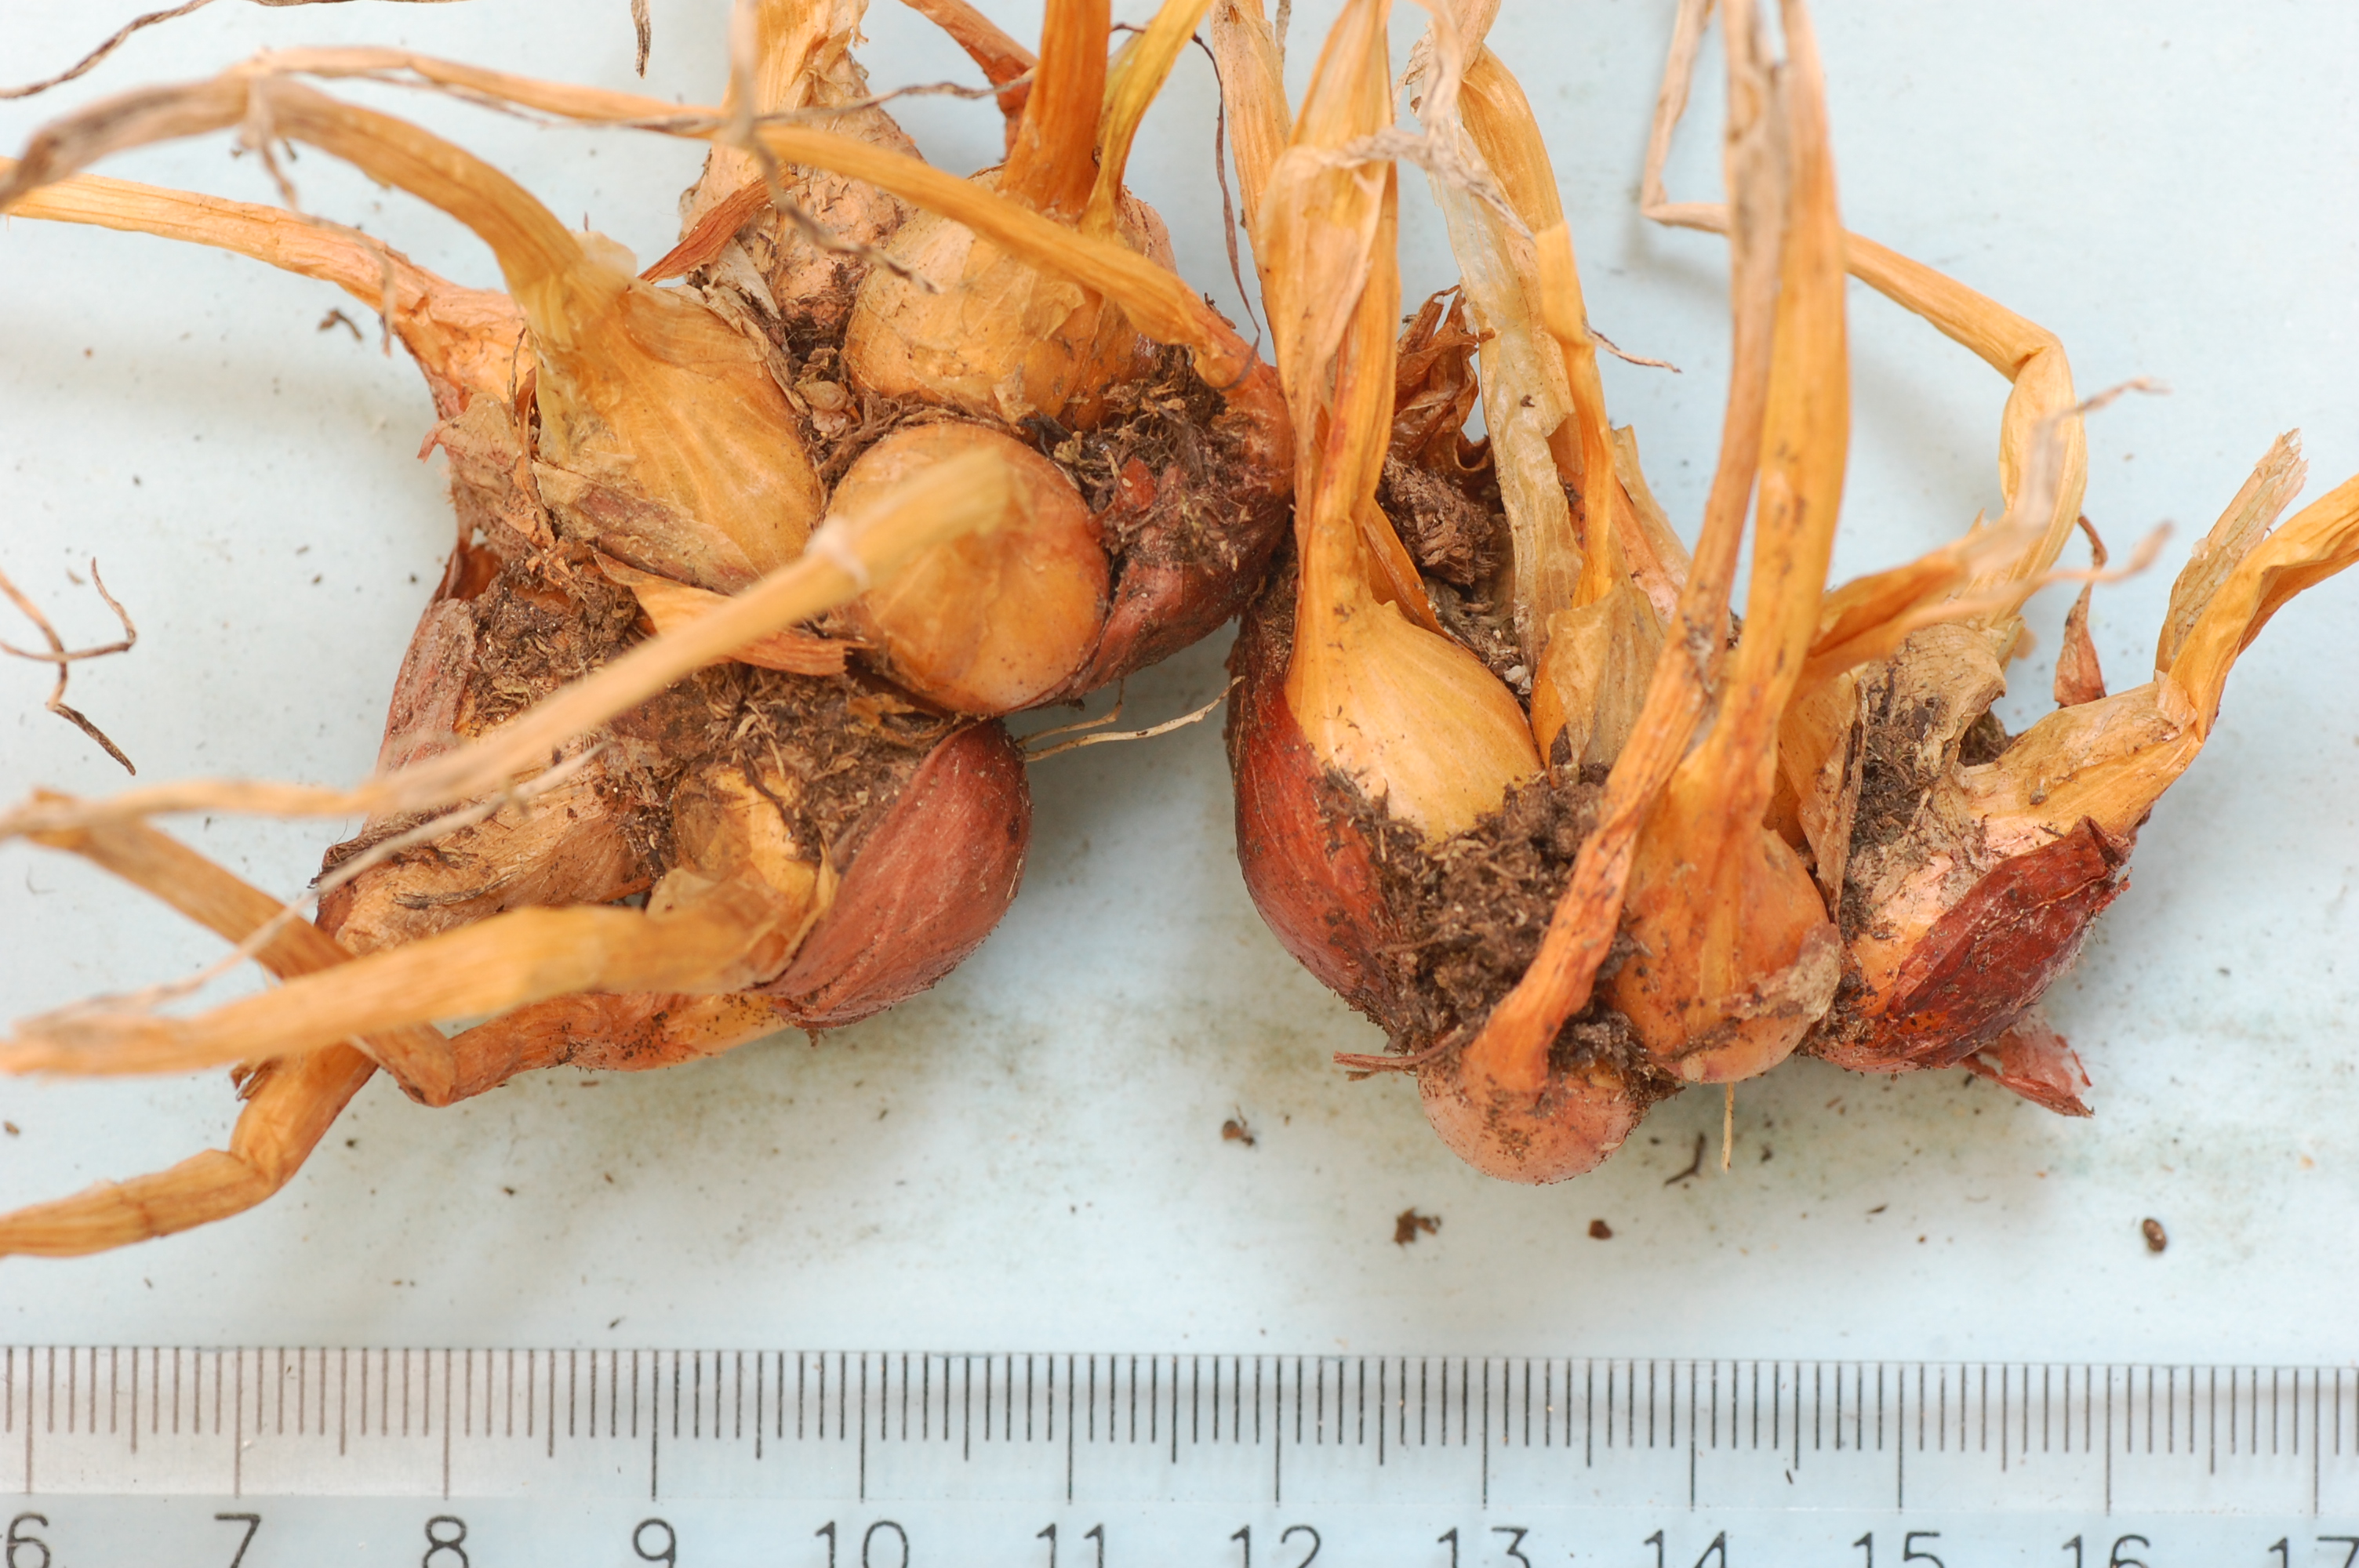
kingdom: Plantae
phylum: Tracheophyta
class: Liliopsida
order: Asparagales
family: Amaryllidaceae
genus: Allium
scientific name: Allium cepa
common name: Onion
